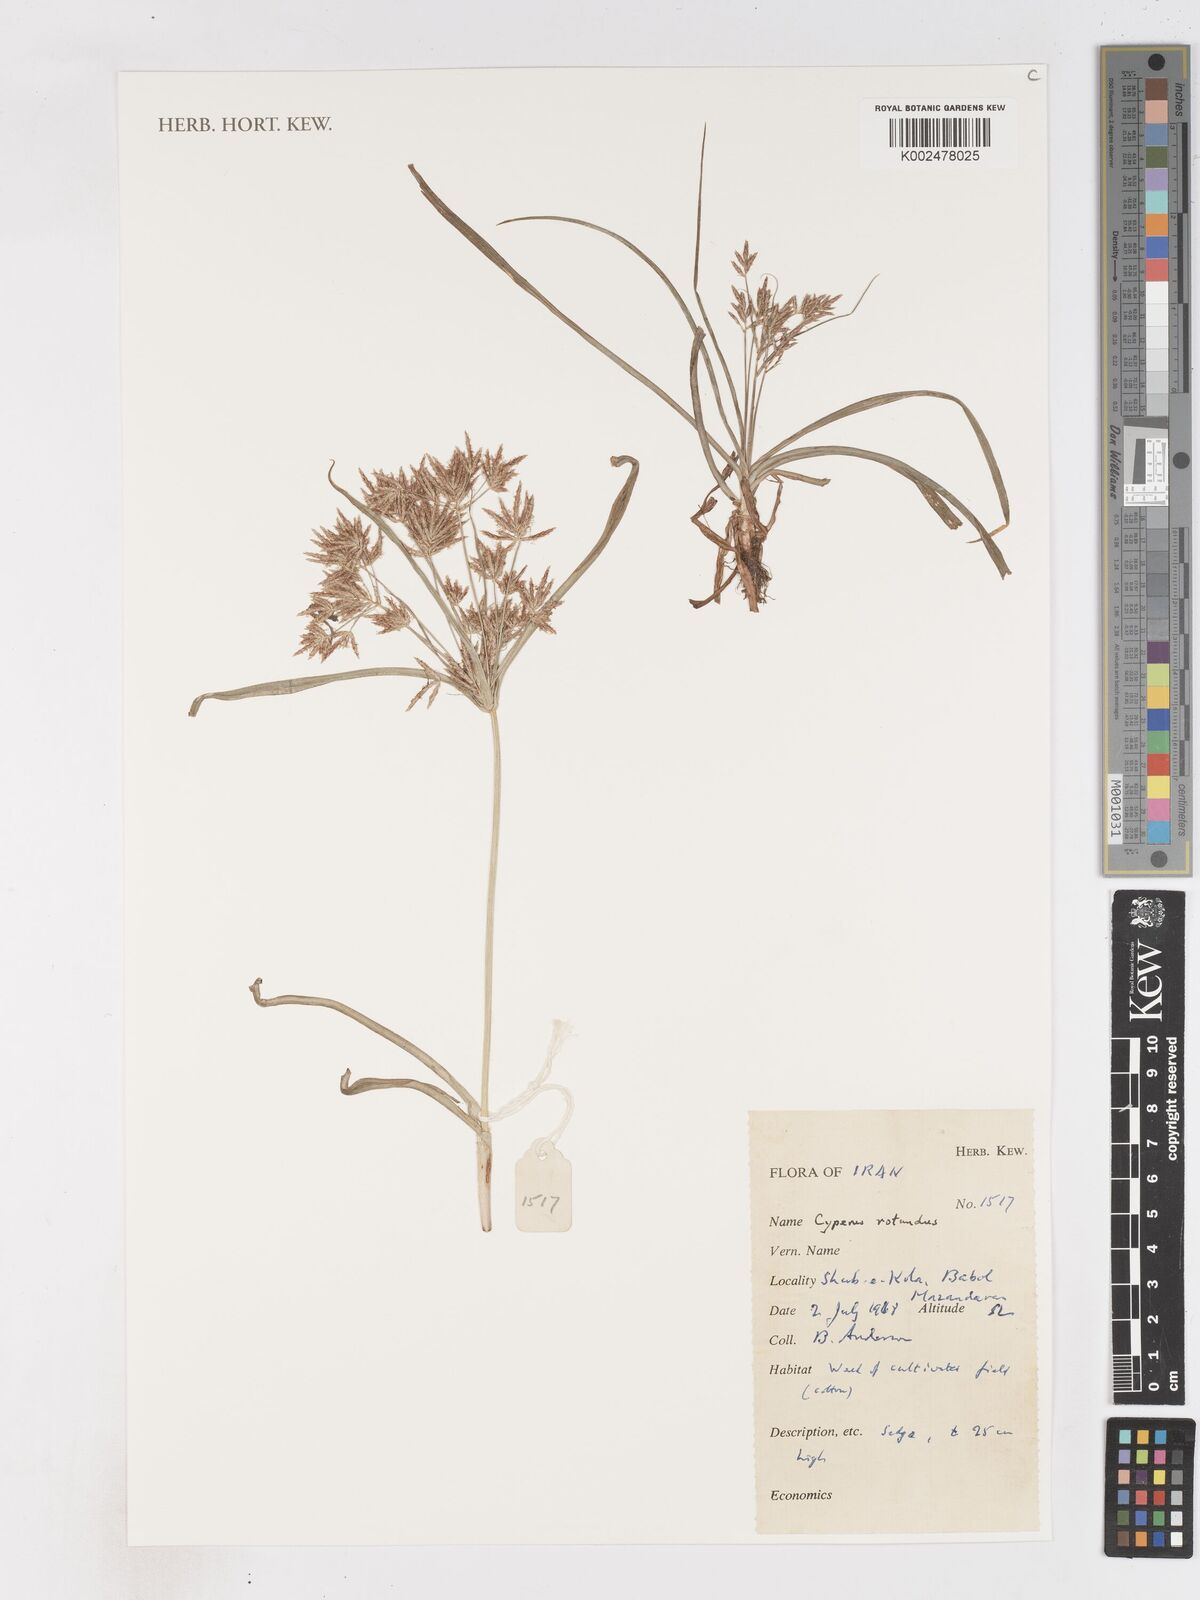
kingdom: Plantae
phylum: Tracheophyta
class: Liliopsida
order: Poales
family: Cyperaceae
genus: Cyperus
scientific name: Cyperus rotundus
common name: Nutgrass
